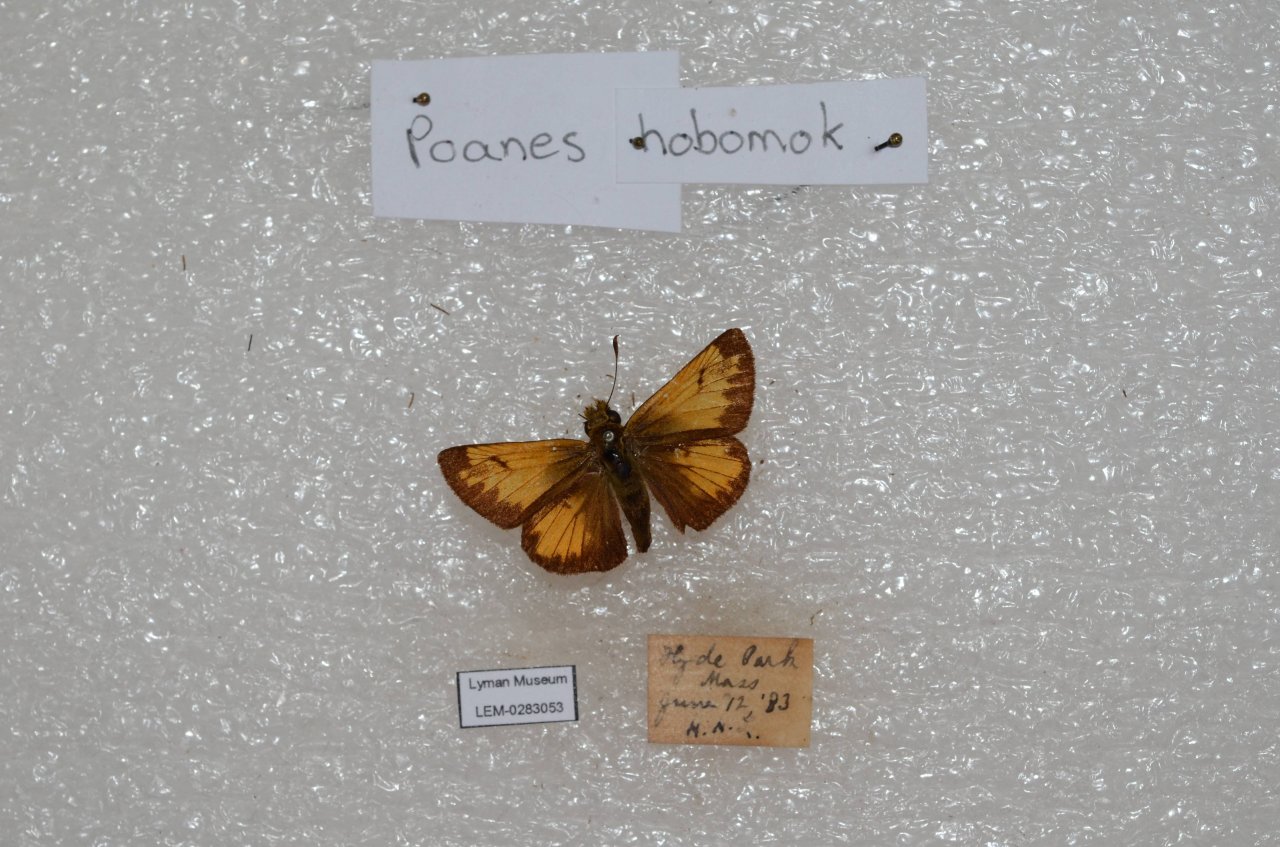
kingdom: Animalia
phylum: Arthropoda
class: Insecta
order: Lepidoptera
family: Hesperiidae
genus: Lon
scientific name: Lon hobomok
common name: Hobomok Skipper
